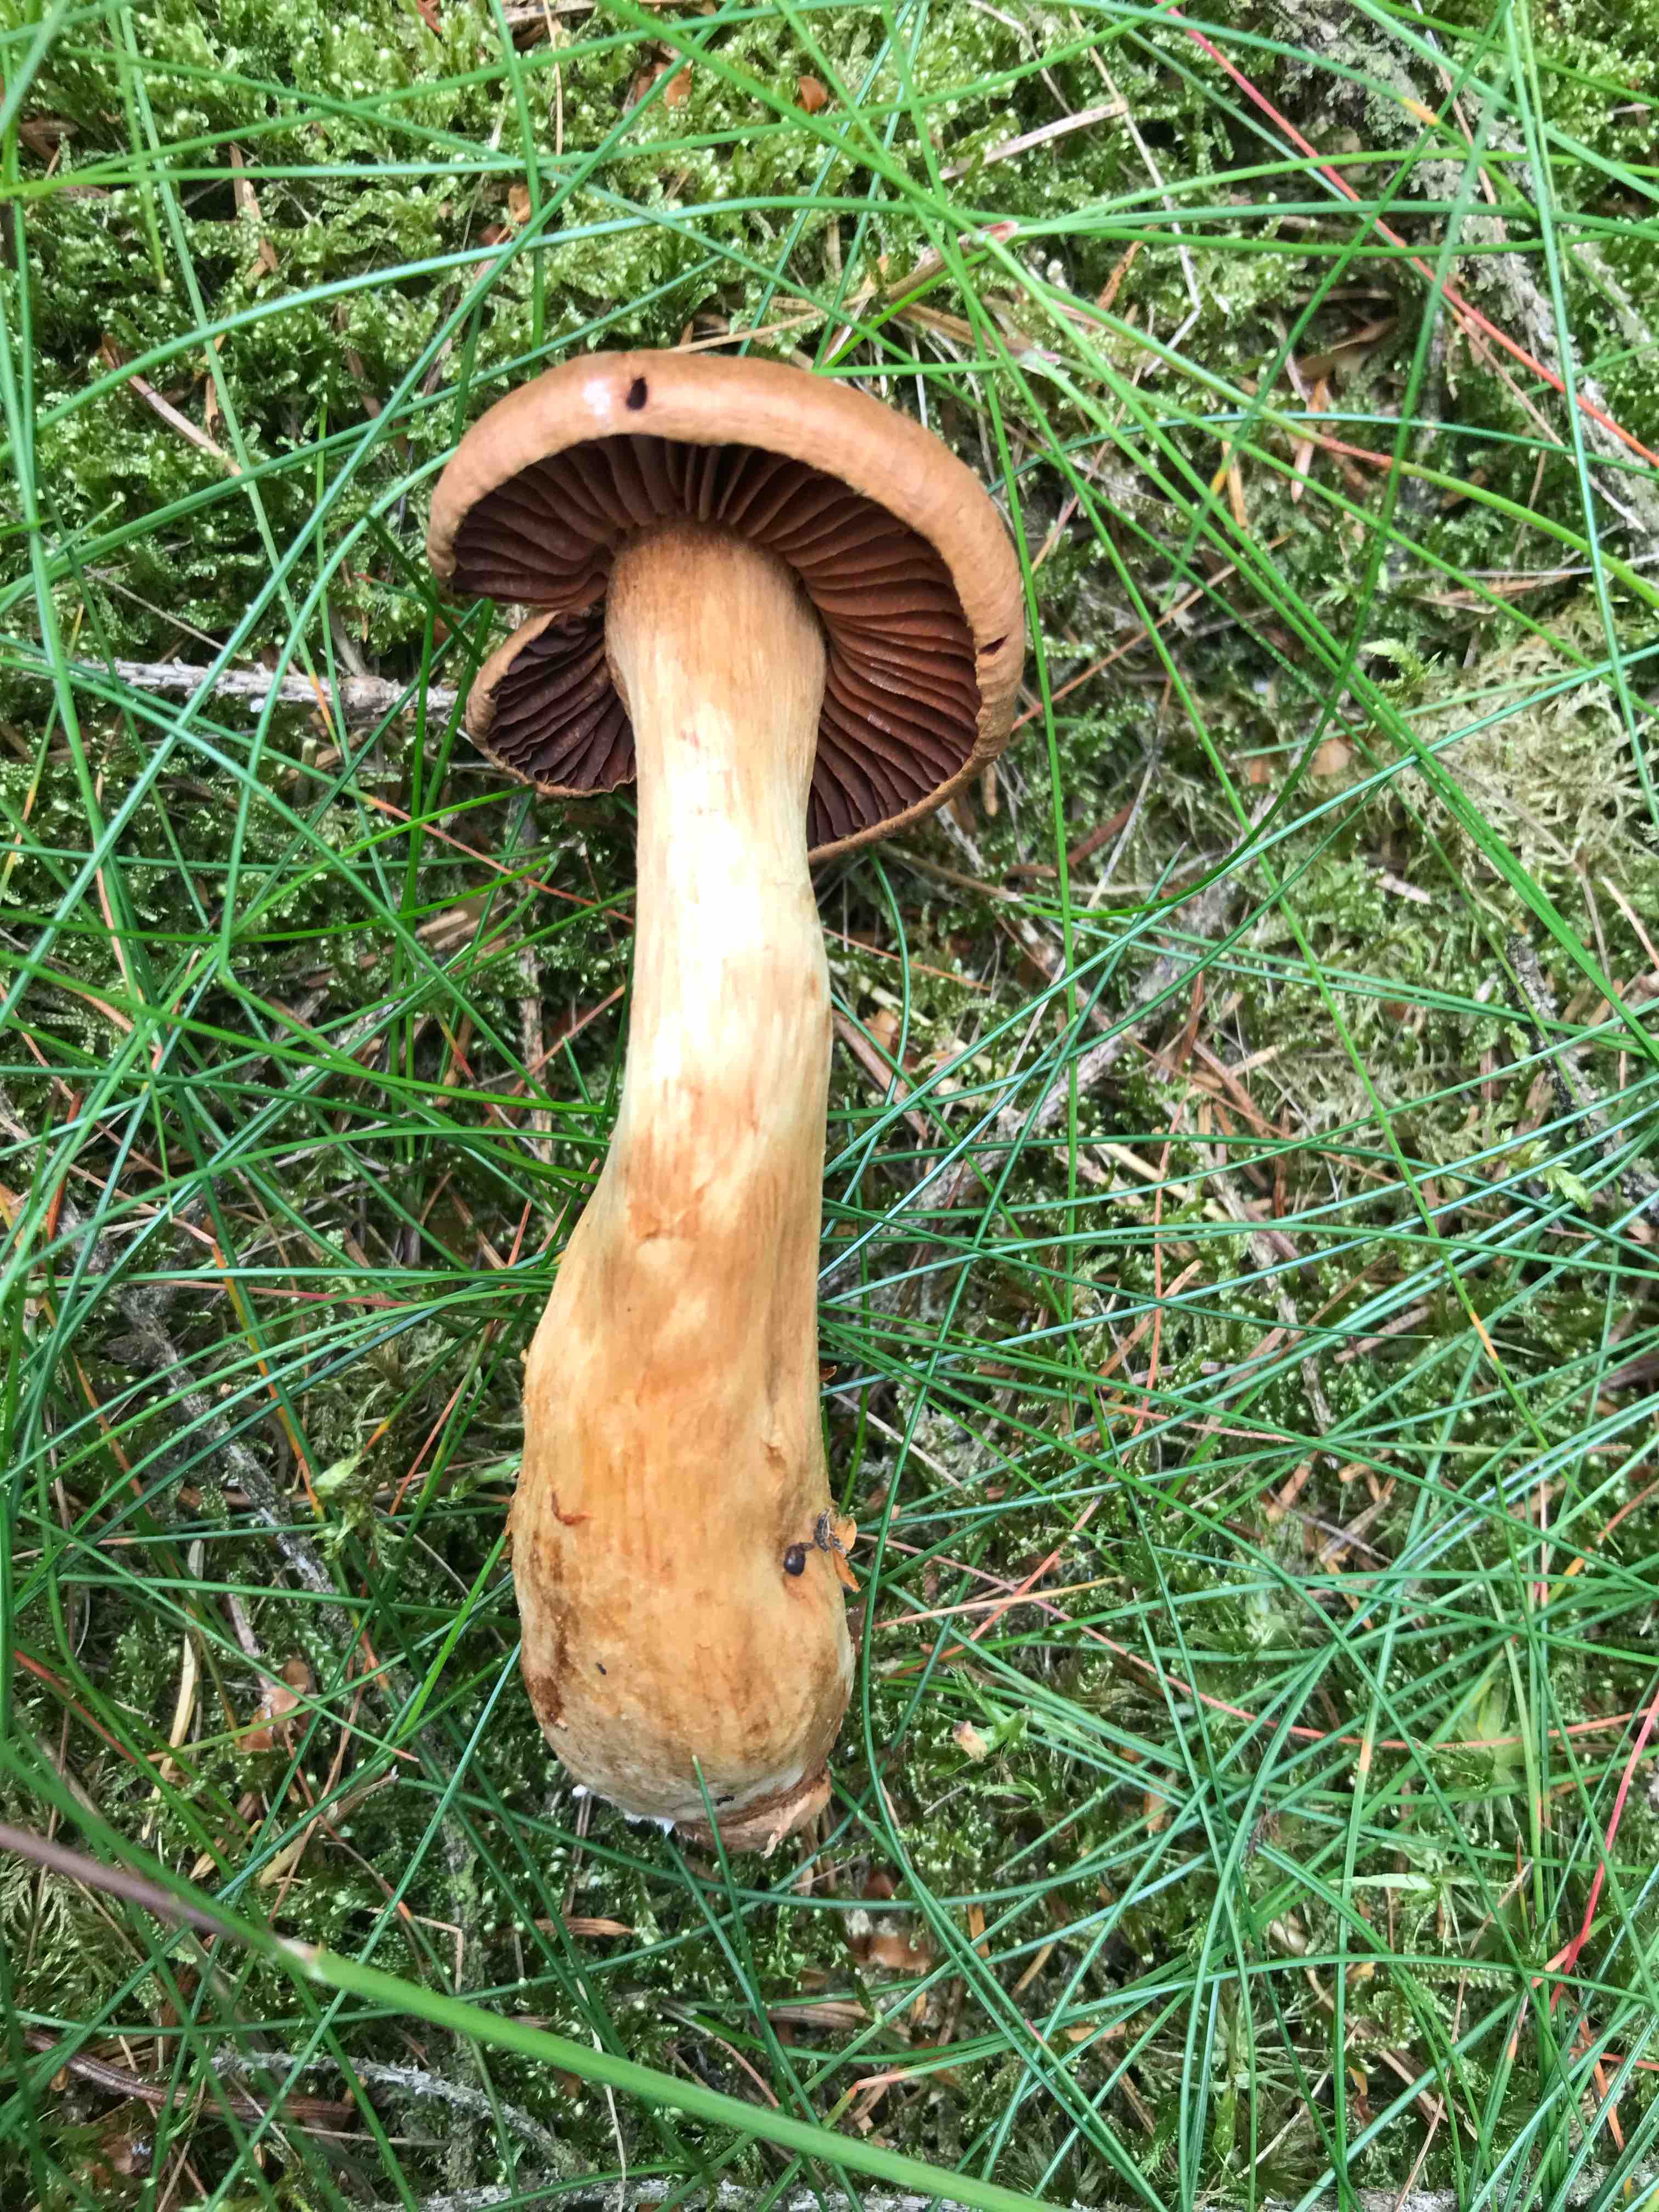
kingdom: Fungi
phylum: Basidiomycota
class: Agaricomycetes
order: Agaricales
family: Cortinariaceae
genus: Cortinarius
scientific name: Cortinarius rubellus
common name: puklet gift-slørhat
